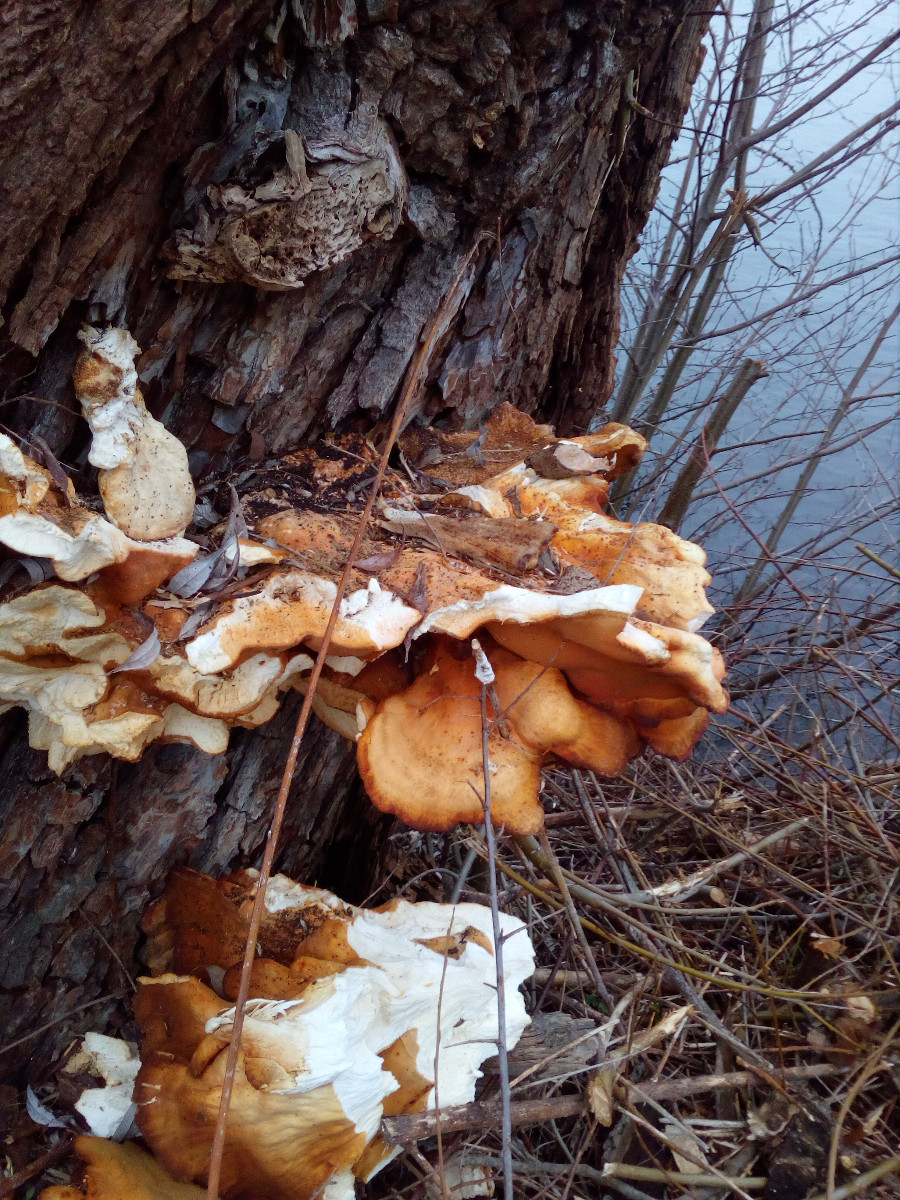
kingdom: Fungi
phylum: Basidiomycota
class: Agaricomycetes
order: Polyporales
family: Laetiporaceae
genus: Laetiporus
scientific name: Laetiporus sulphureus
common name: svovlporesvamp
